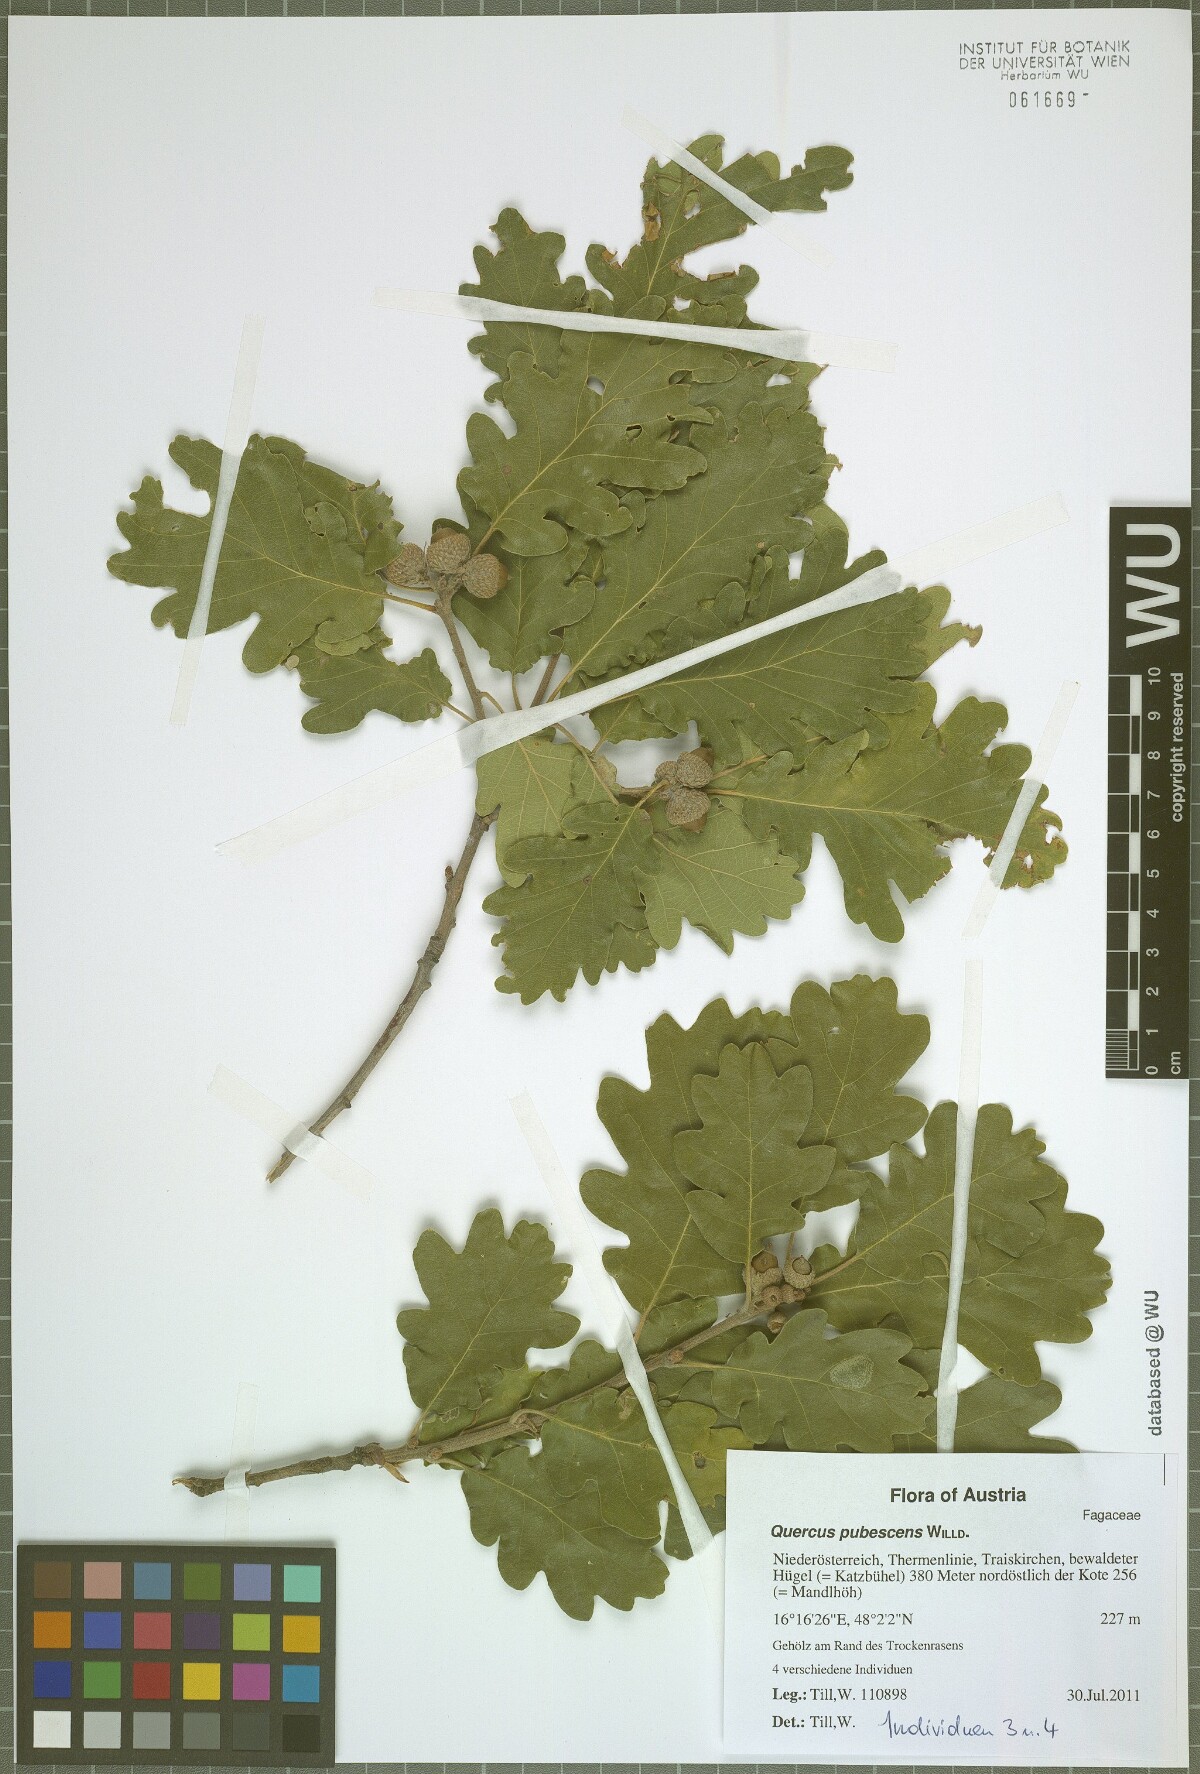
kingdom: Plantae
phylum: Tracheophyta
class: Magnoliopsida
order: Fagales
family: Fagaceae
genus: Quercus
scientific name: Quercus pubescens
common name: Downy oak
